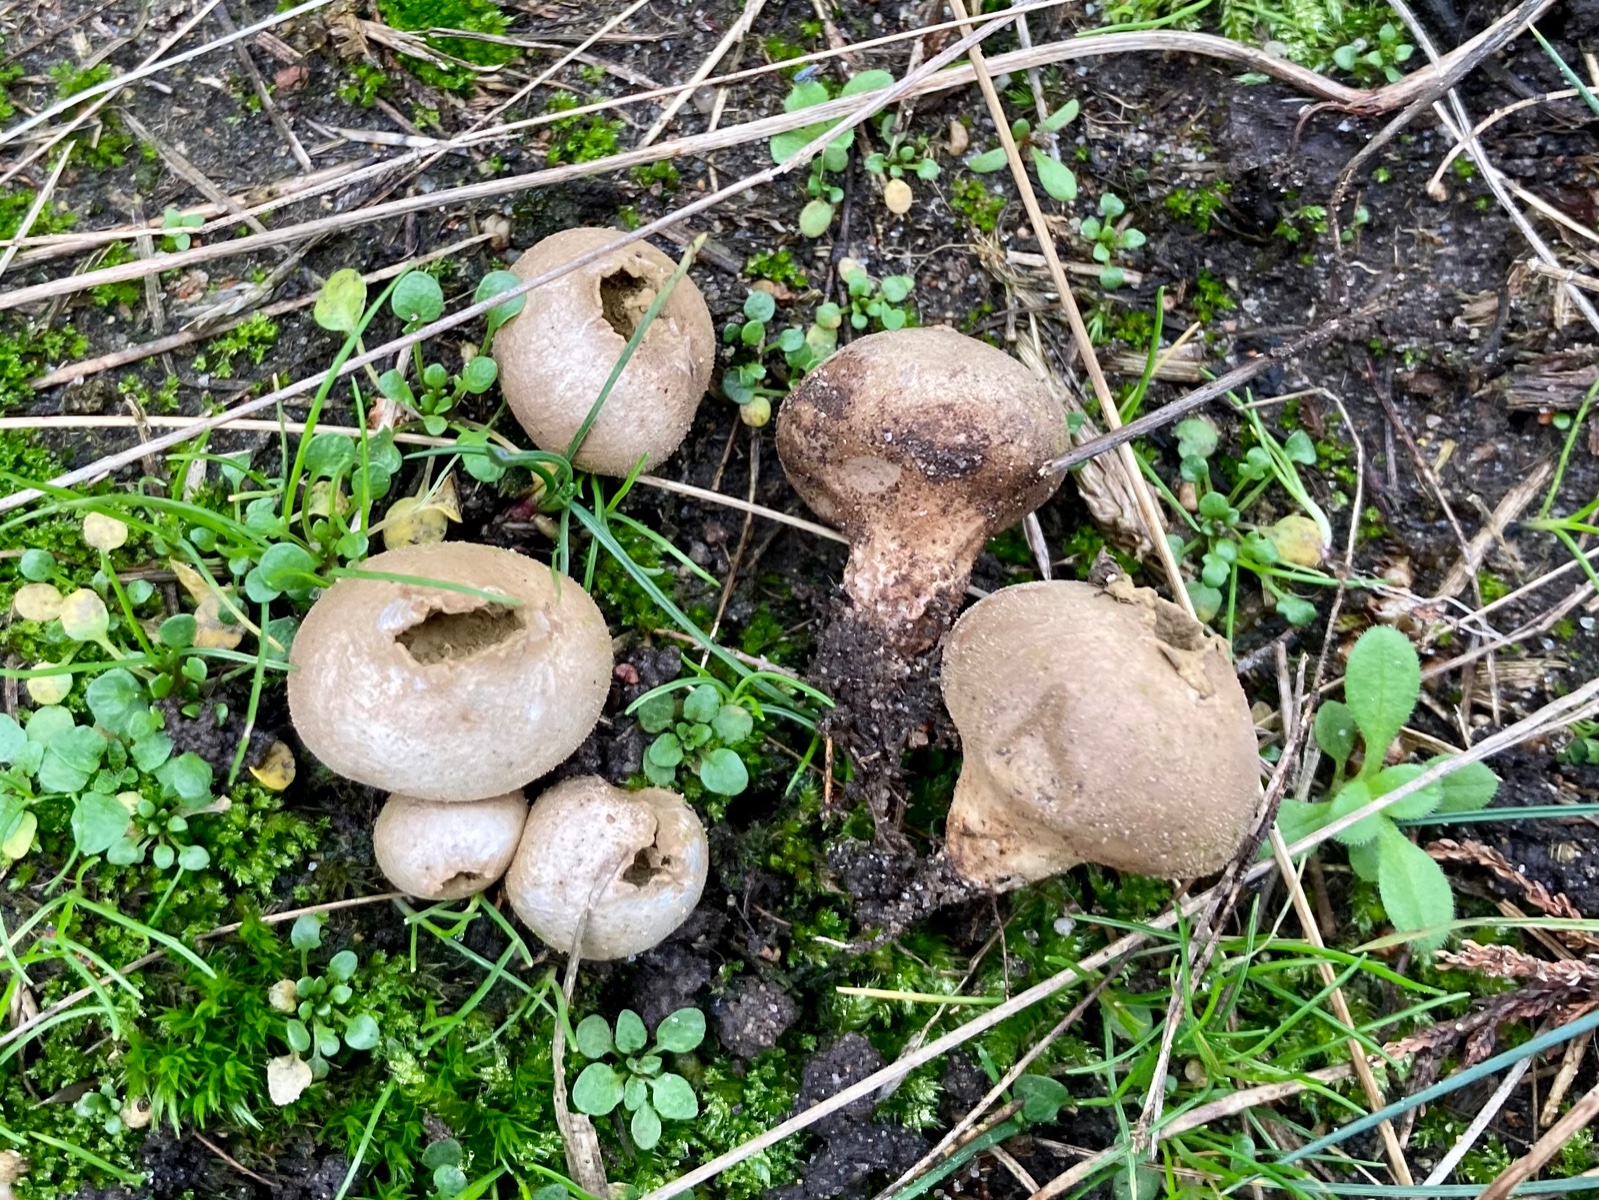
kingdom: Fungi
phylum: Basidiomycota
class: Agaricomycetes
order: Agaricales
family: Lycoperdaceae
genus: Lycoperdon
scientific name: Lycoperdon lividum
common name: mark-støvbold
